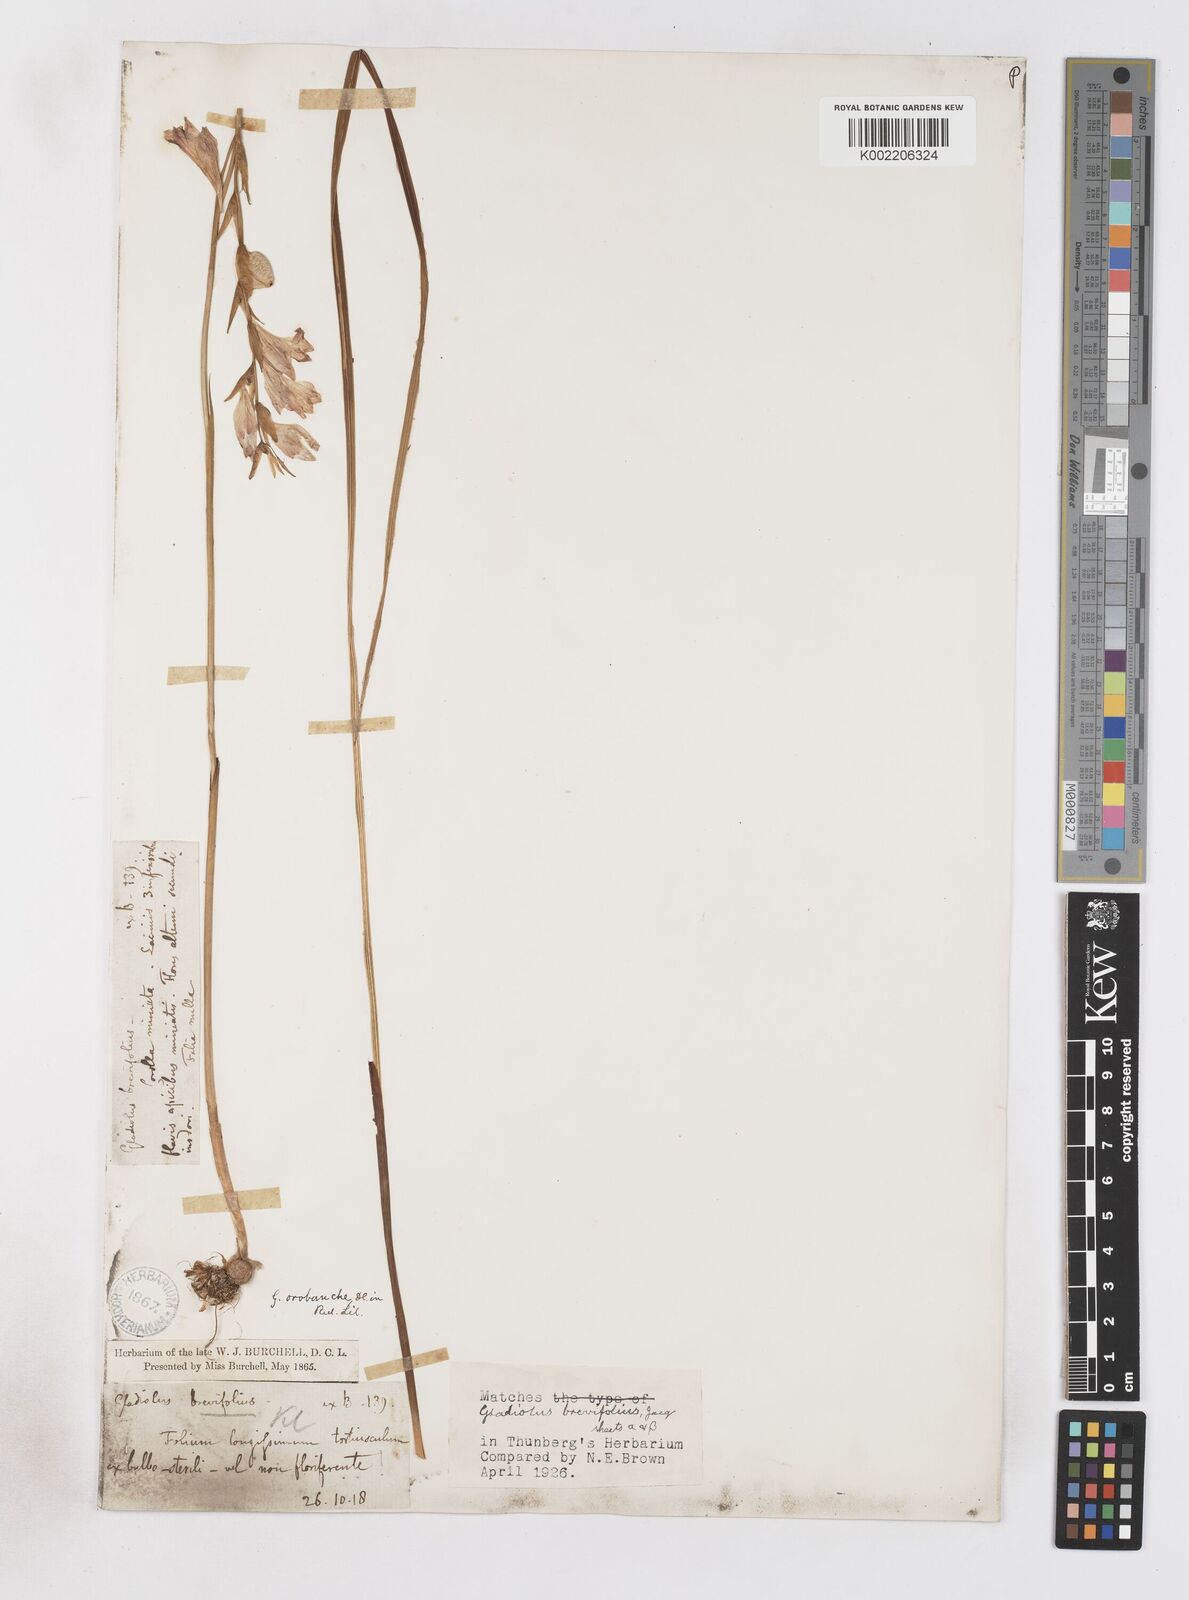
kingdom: Plantae
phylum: Tracheophyta
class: Liliopsida
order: Asparagales
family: Iridaceae
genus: Gladiolus
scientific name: Gladiolus brevifolius
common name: March pypie
